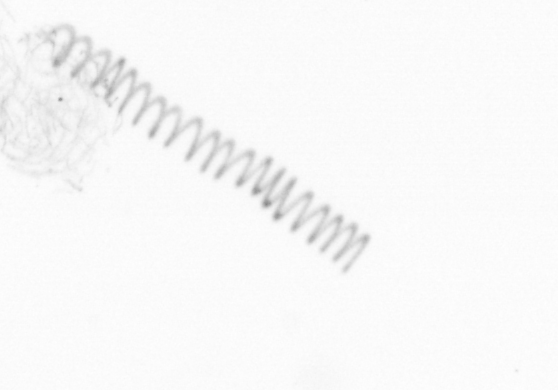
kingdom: Chromista
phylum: Ochrophyta
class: Bacillariophyceae
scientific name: Bacillariophyceae
